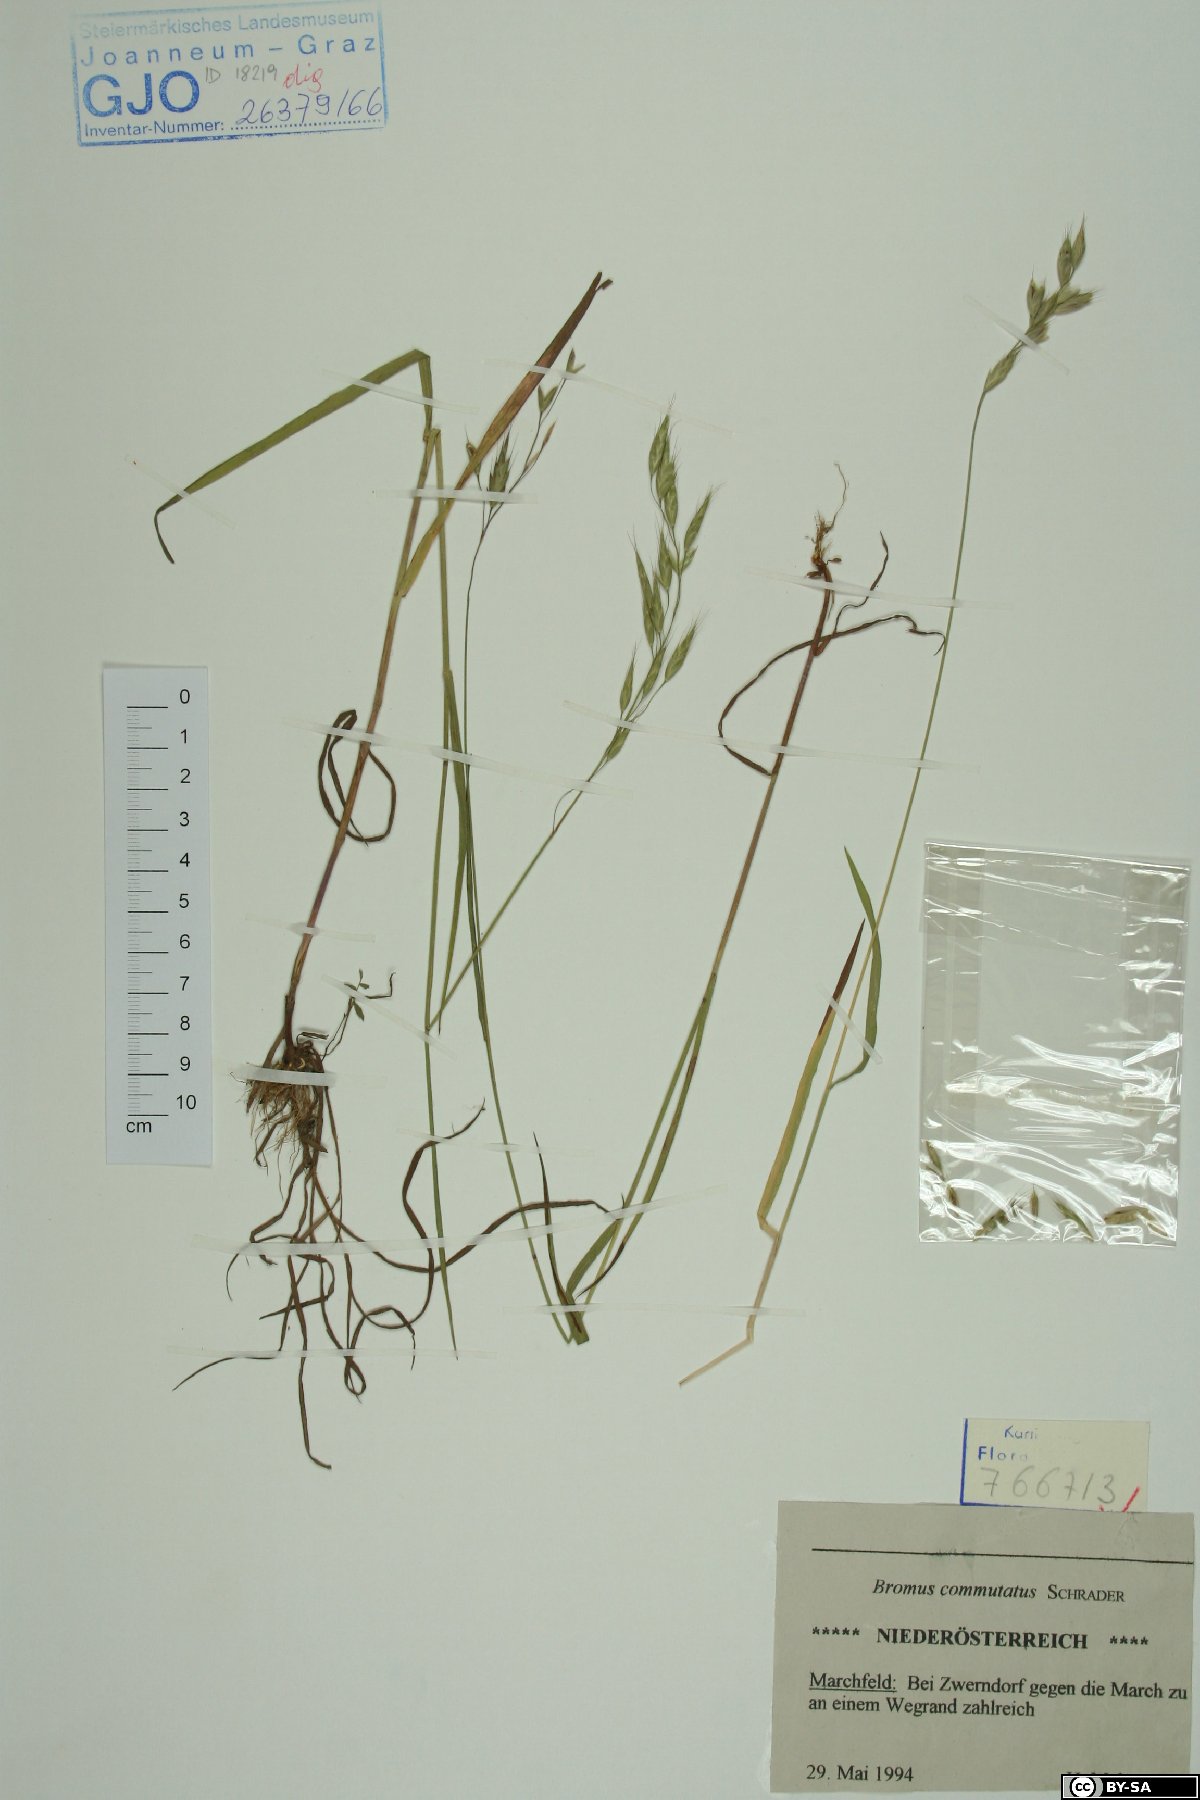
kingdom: Plantae
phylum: Tracheophyta
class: Liliopsida
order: Poales
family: Poaceae
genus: Bromus
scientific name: Bromus commutatus
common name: Meadow brome
